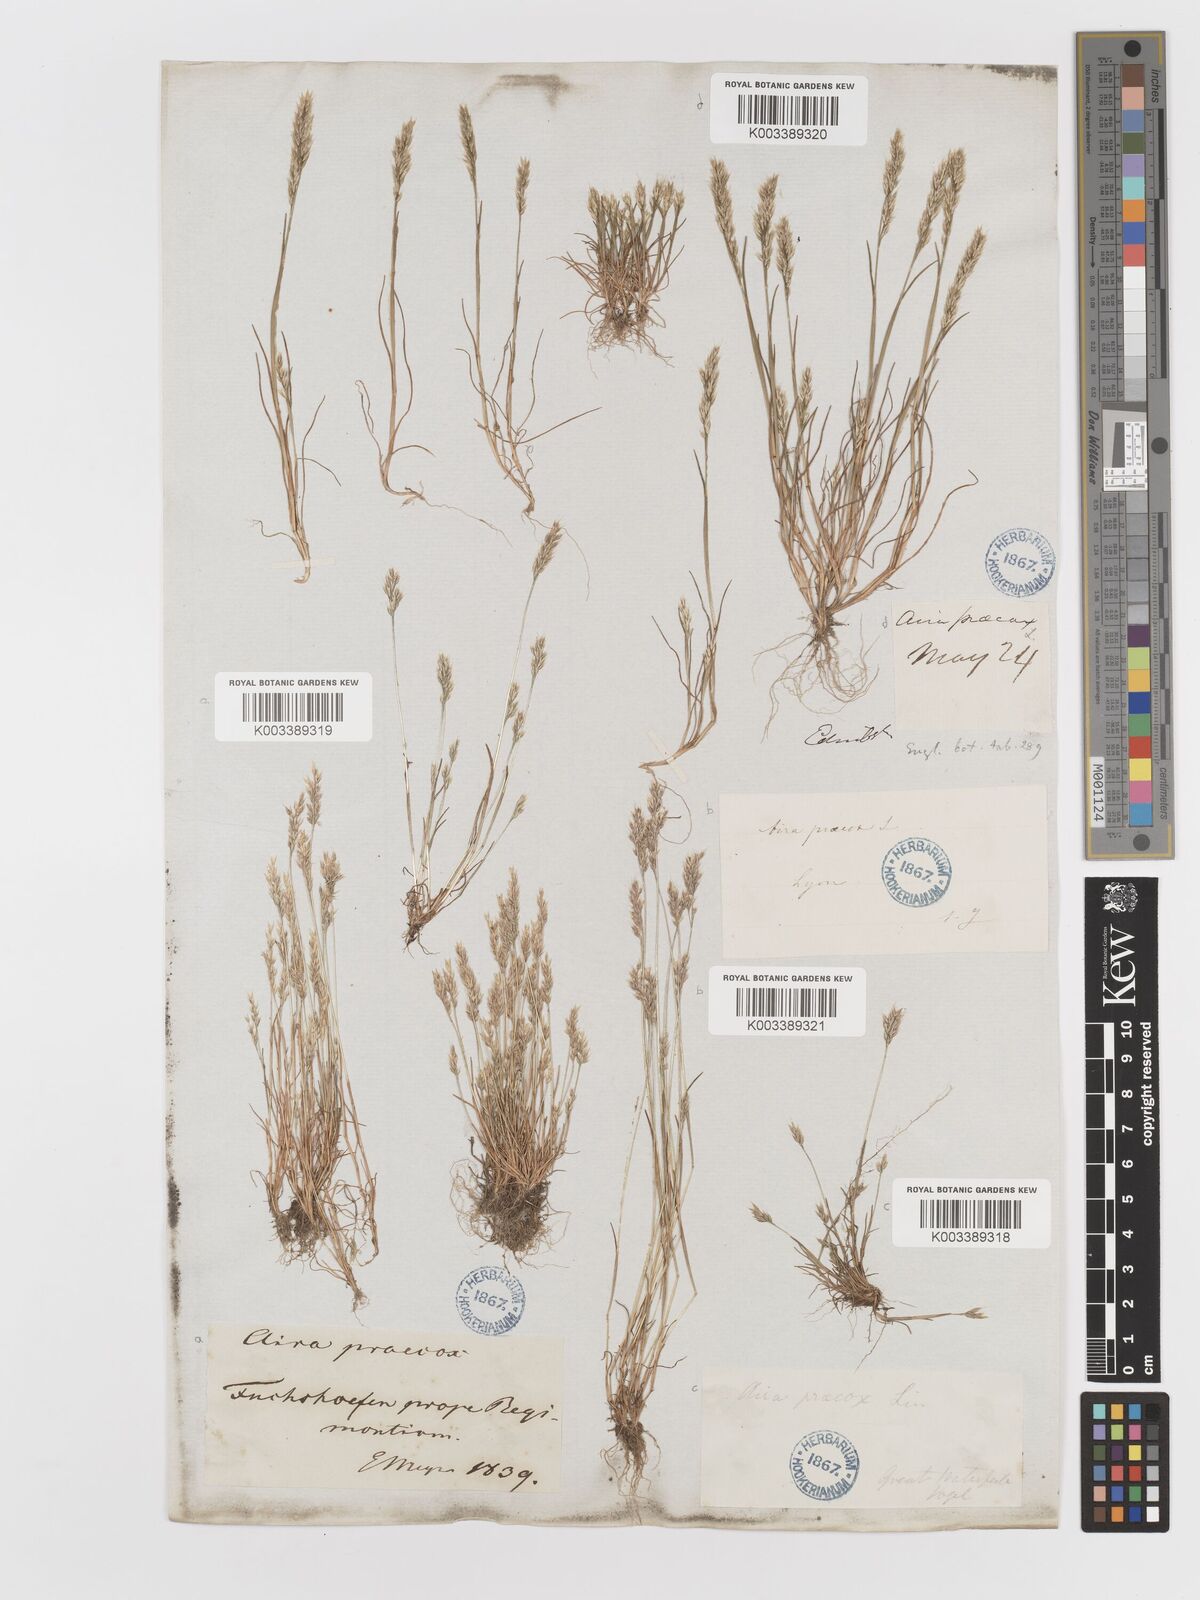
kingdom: Plantae
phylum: Tracheophyta
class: Liliopsida
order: Poales
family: Poaceae
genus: Aira
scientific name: Aira praecox
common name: Early hair-grass
